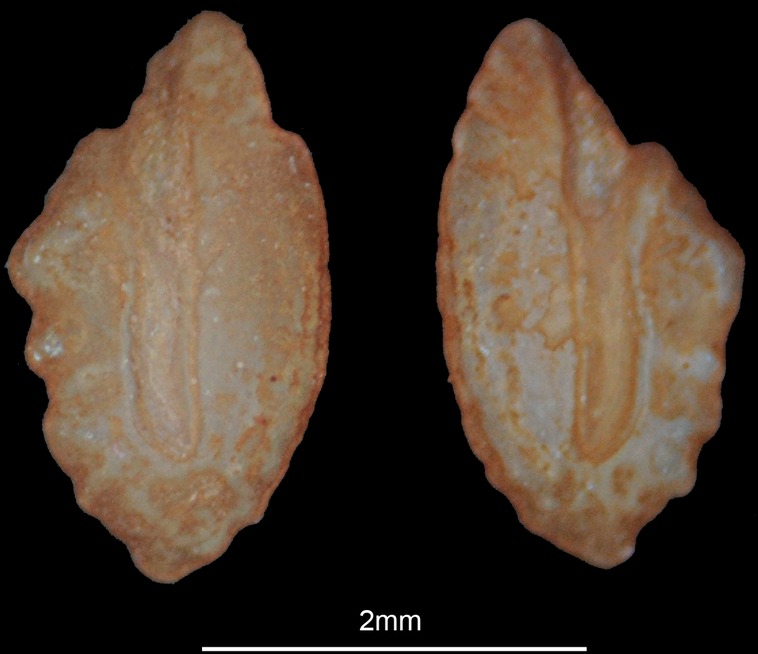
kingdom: Animalia
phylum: Chordata
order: Perciformes
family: Percidae
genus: Perca
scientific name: Perca fluviatilis
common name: Perch
